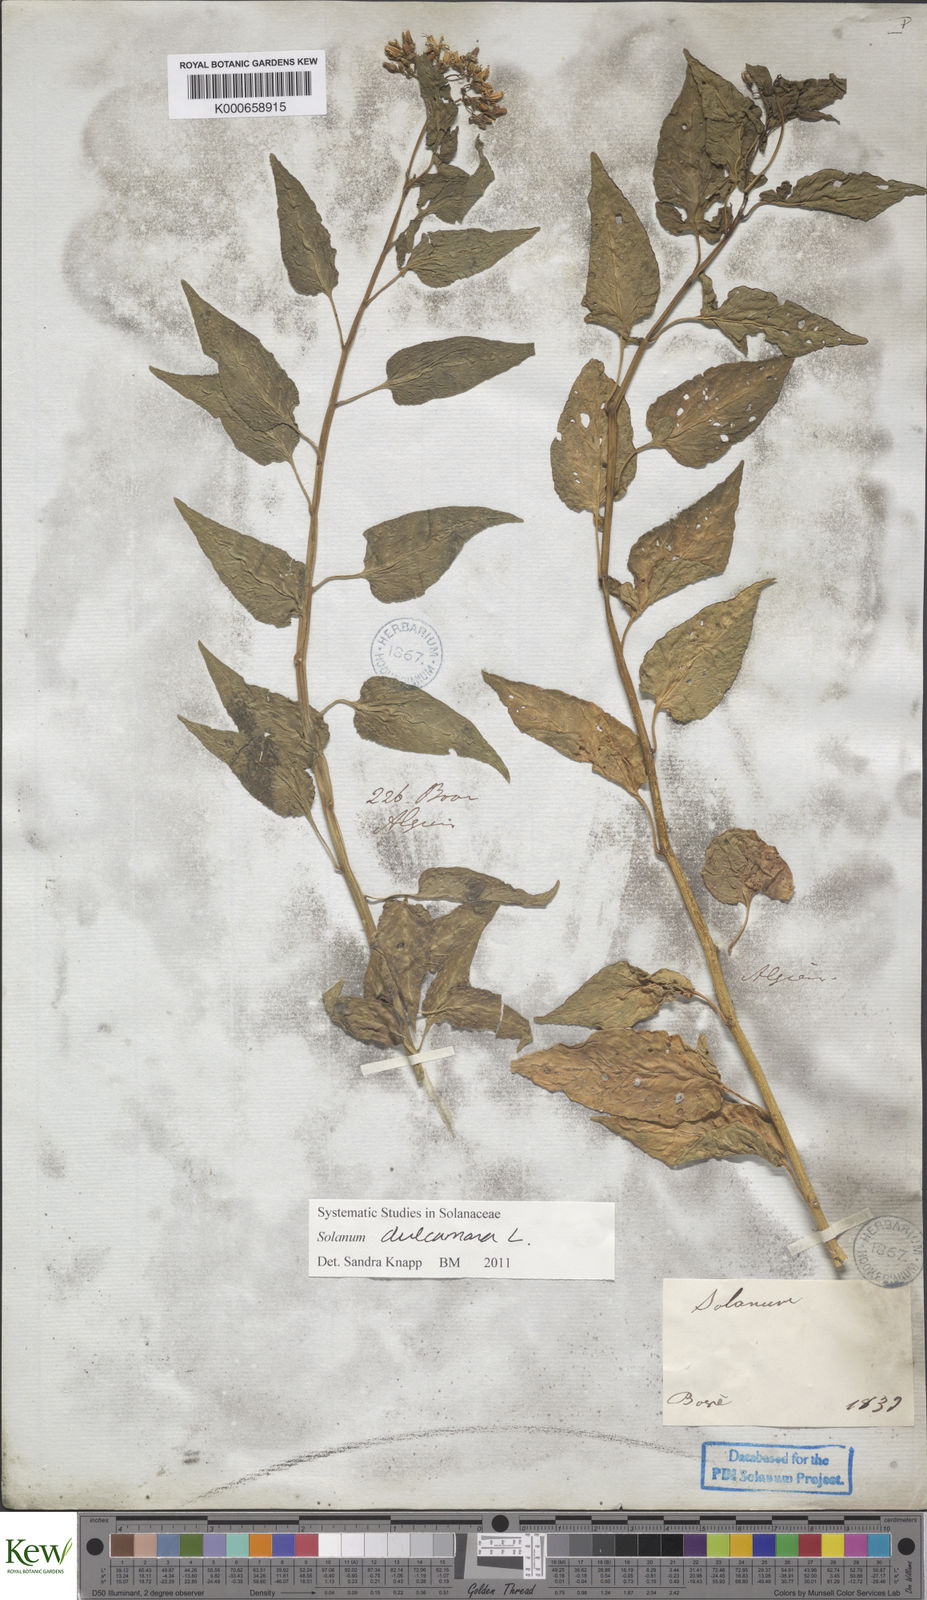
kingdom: Plantae
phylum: Tracheophyta
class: Magnoliopsida
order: Solanales
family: Solanaceae
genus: Solanum
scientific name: Solanum dulcamara
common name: Climbing nightshade
